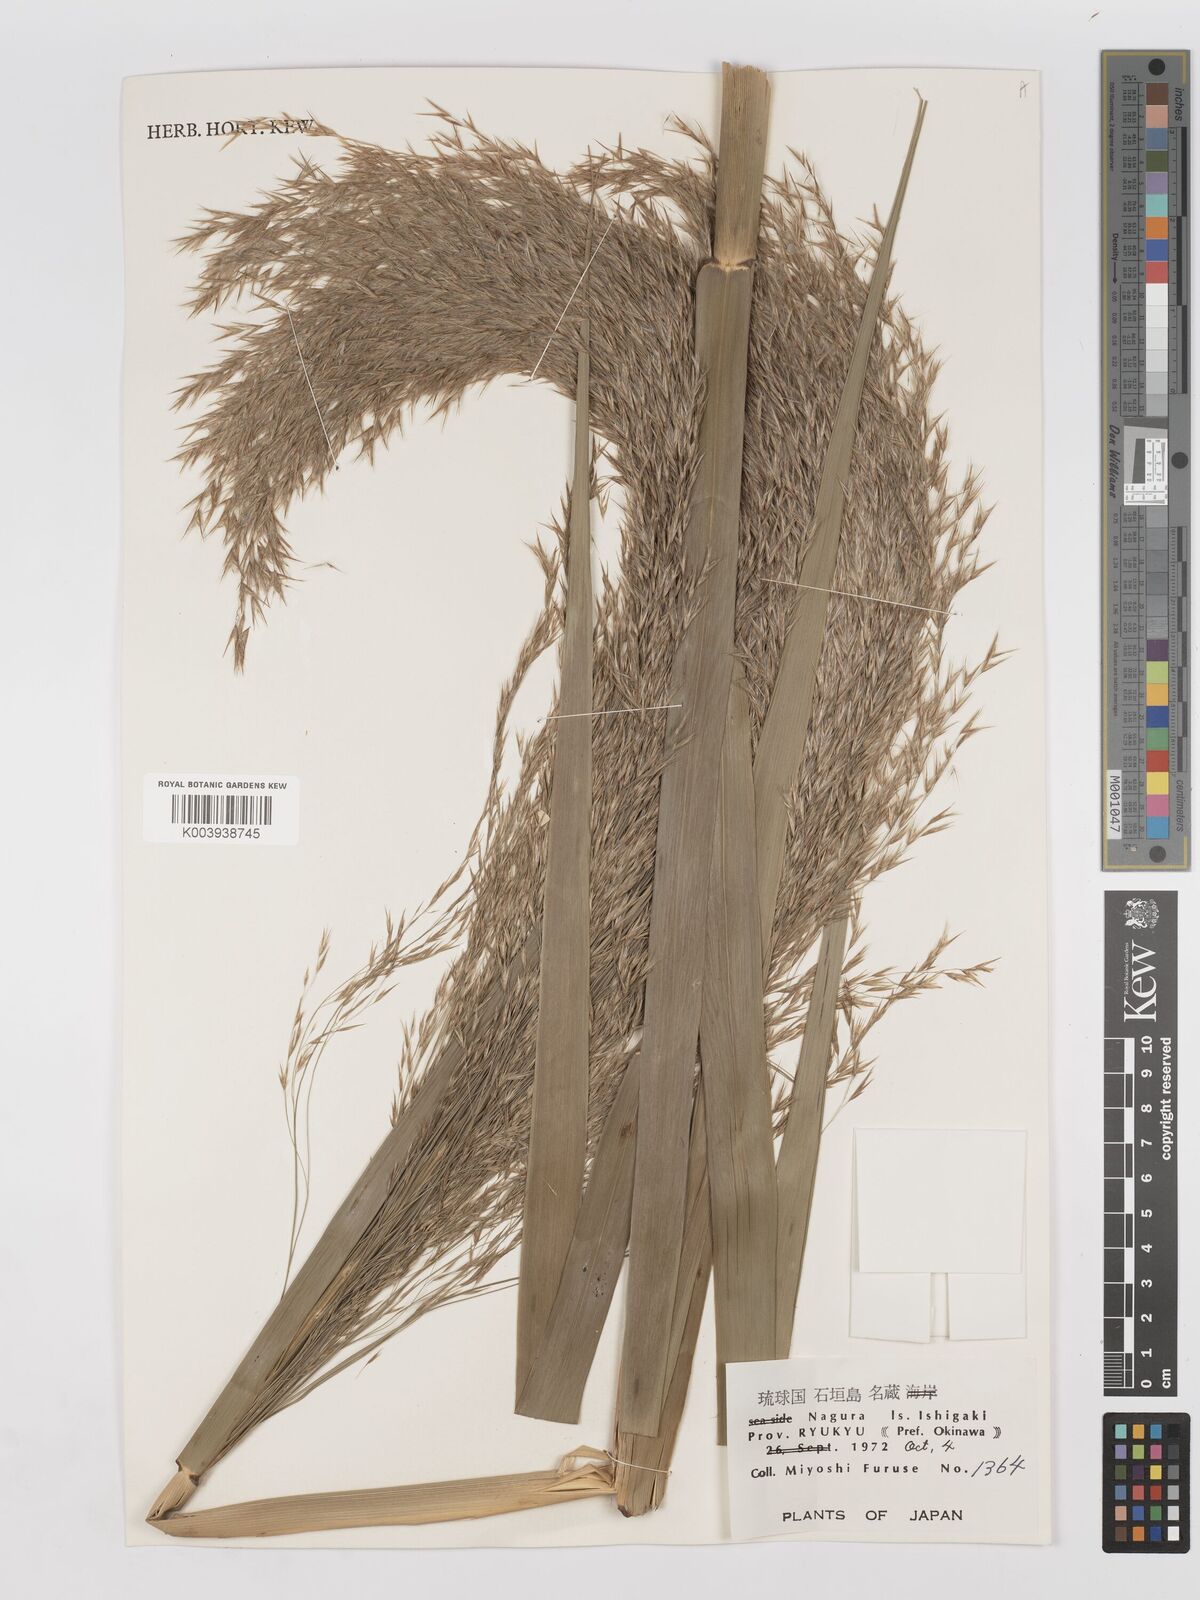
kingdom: Plantae
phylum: Tracheophyta
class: Liliopsida
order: Poales
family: Poaceae
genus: Phragmites
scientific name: Phragmites karka
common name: Tropical reed
